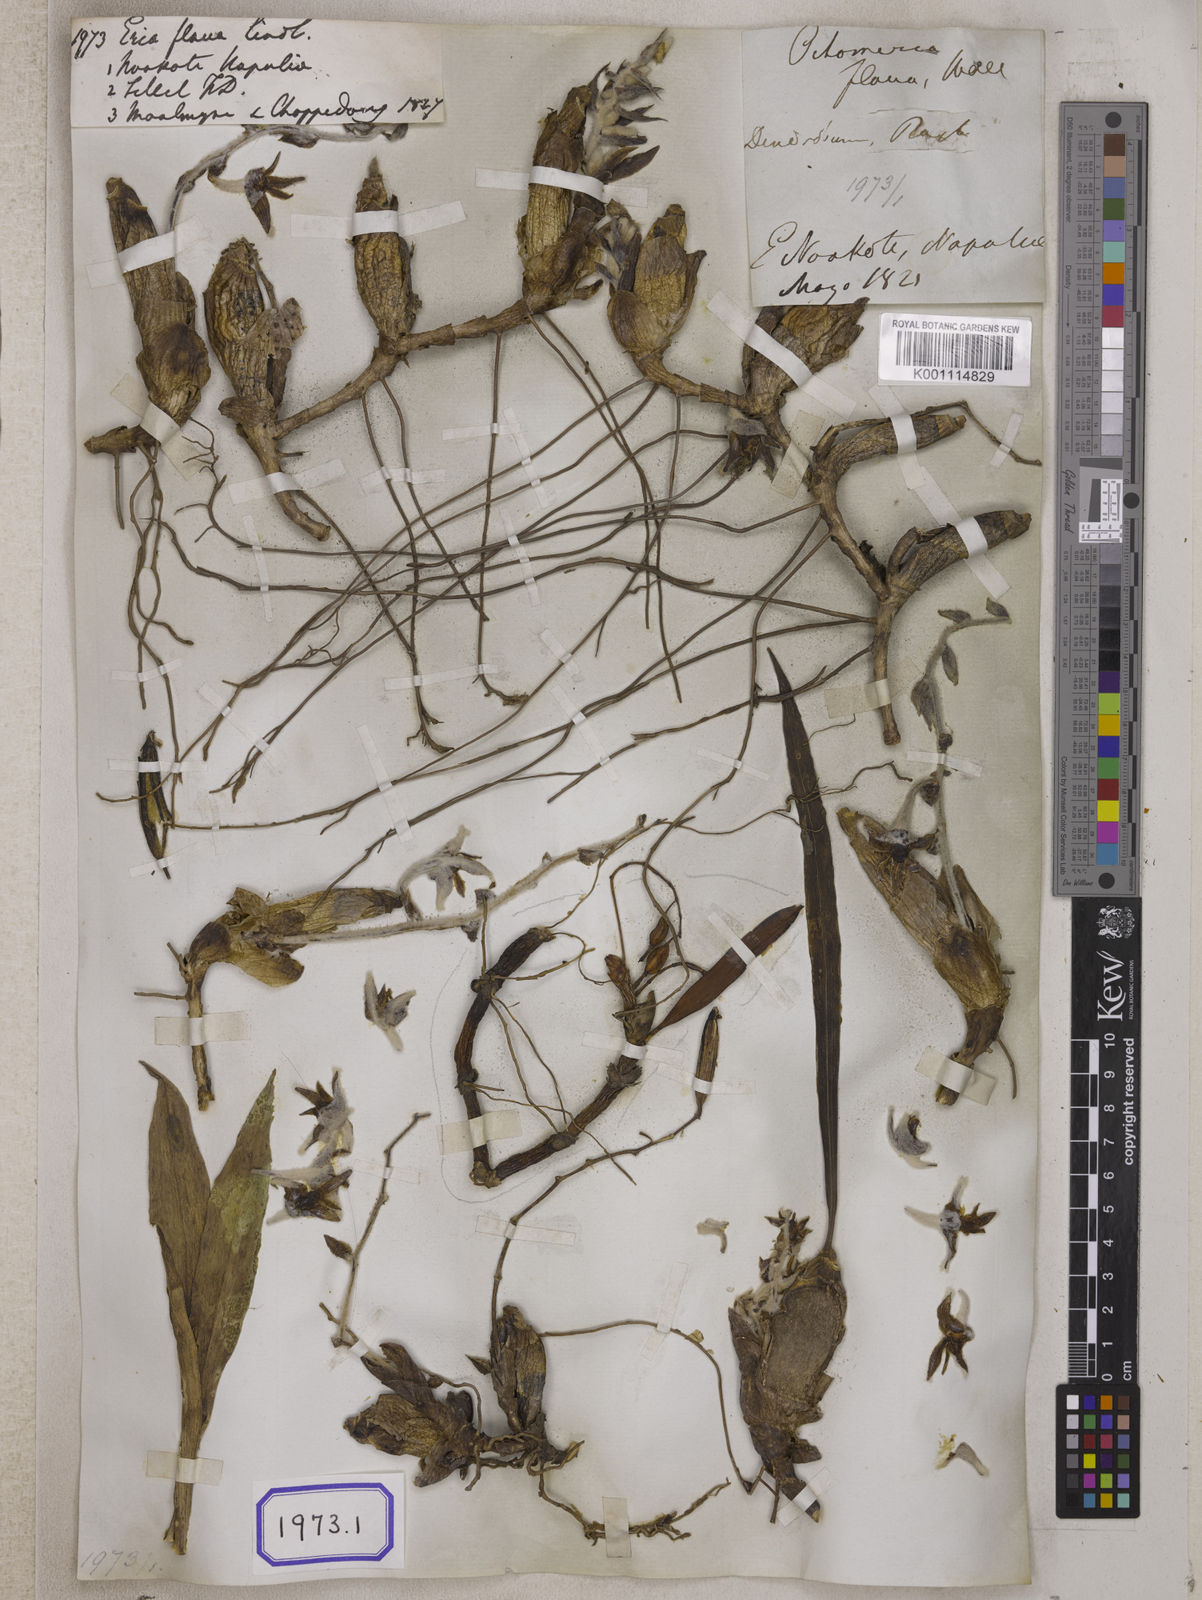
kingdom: Plantae
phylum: Tracheophyta
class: Liliopsida
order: Asparagales
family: Orchidaceae
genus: Dendrolirium
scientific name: Dendrolirium lasiopetalum
